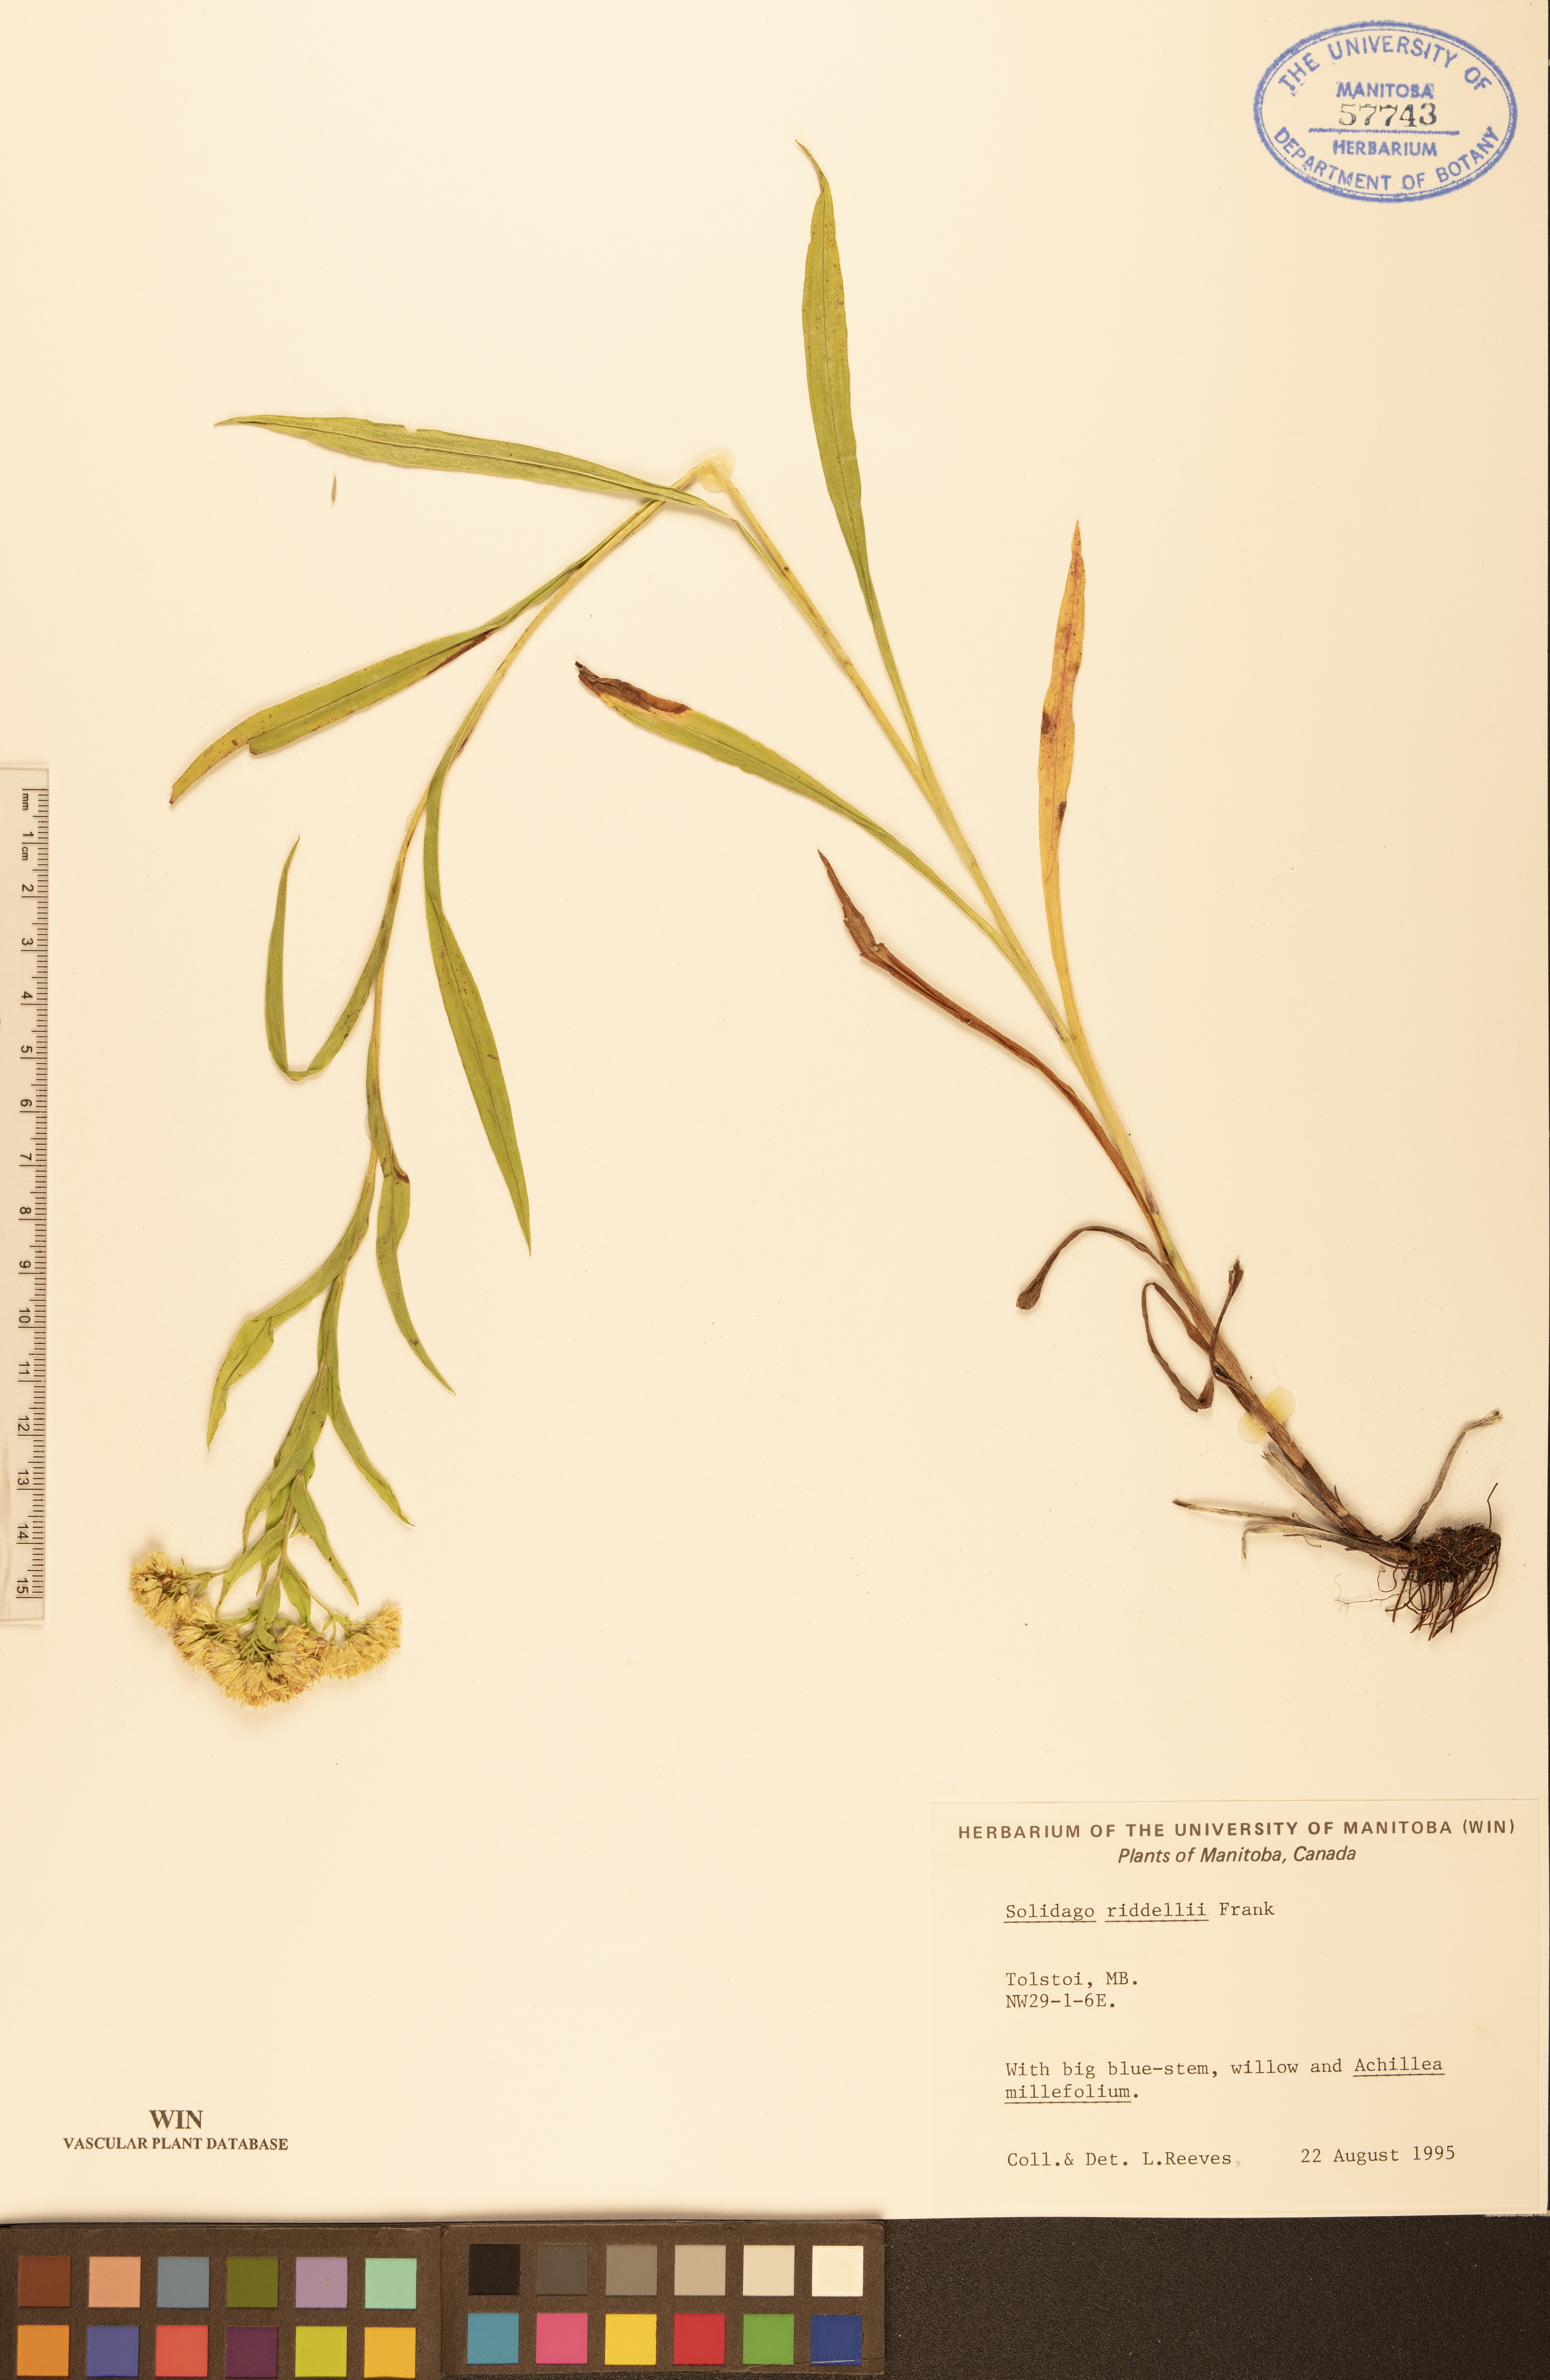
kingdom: Plantae
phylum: Tracheophyta
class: Magnoliopsida
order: Asterales
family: Asteraceae
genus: Solidago
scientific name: Solidago riddellii
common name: Riddell's goldenrod
